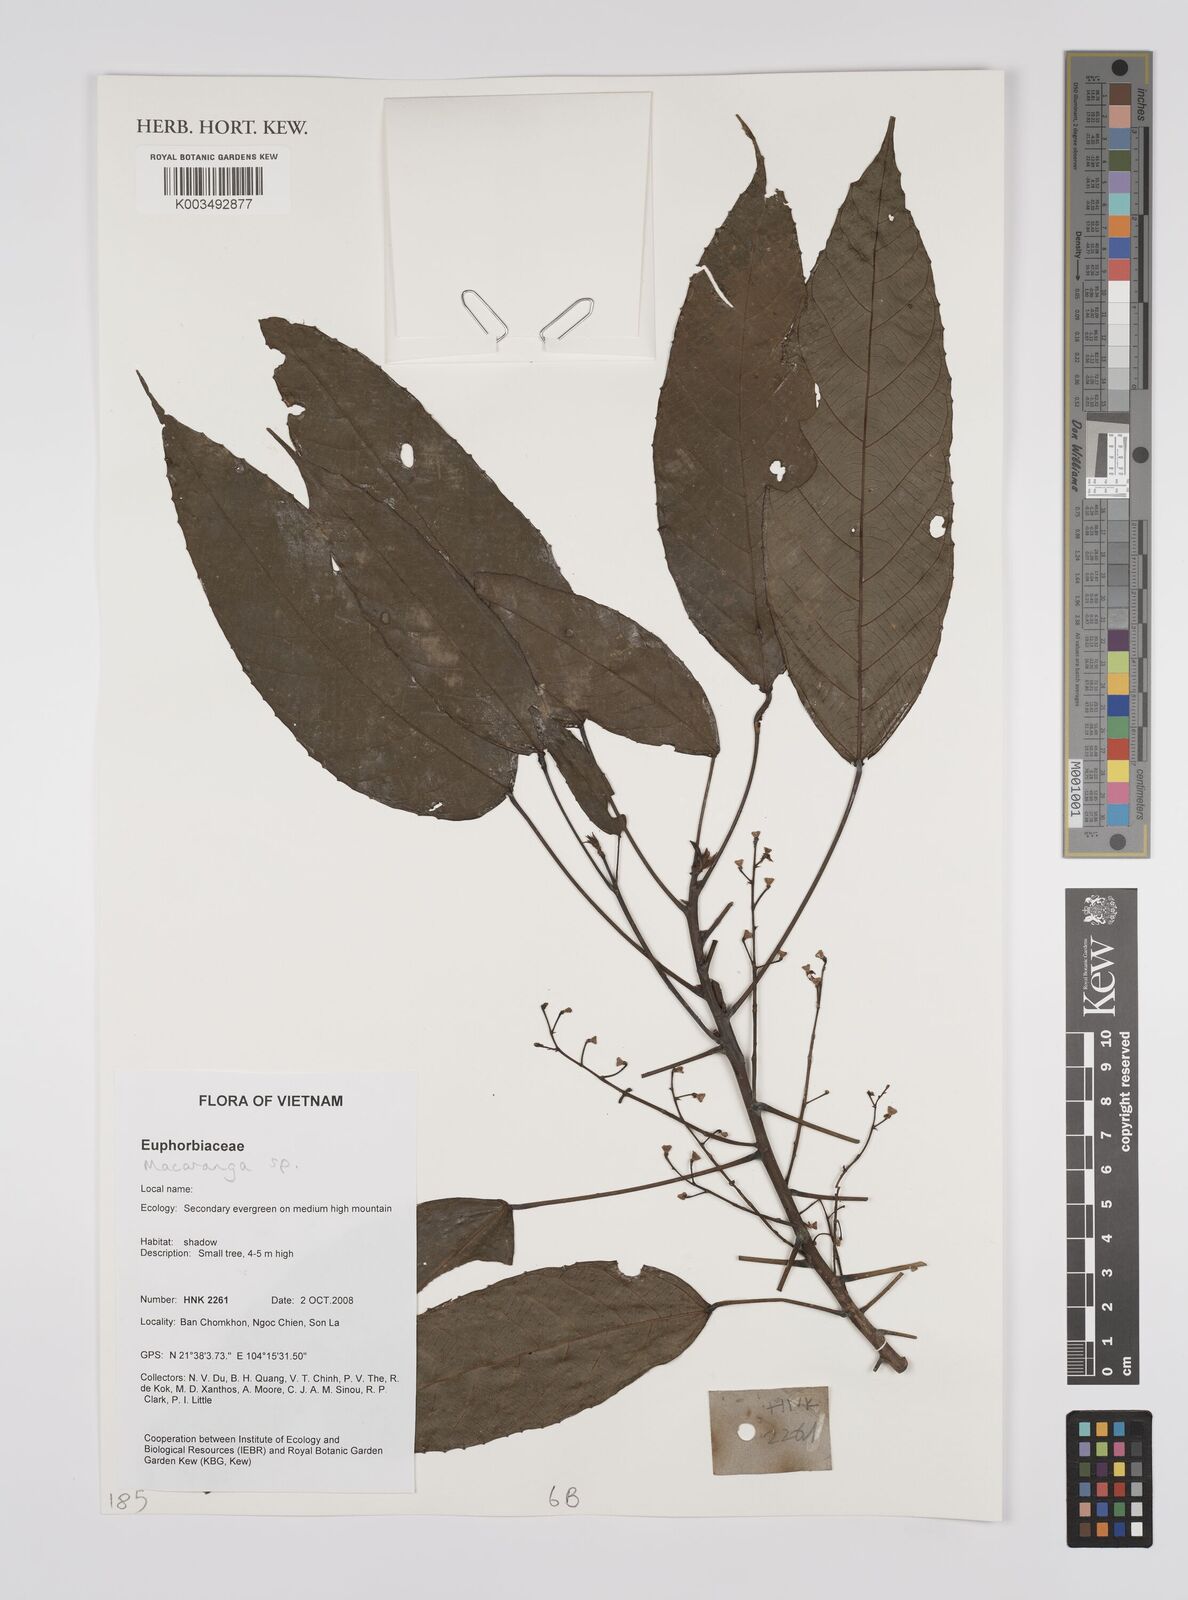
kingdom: Plantae
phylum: Tracheophyta
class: Magnoliopsida
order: Malpighiales
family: Euphorbiaceae
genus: Macaranga
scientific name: Macaranga
